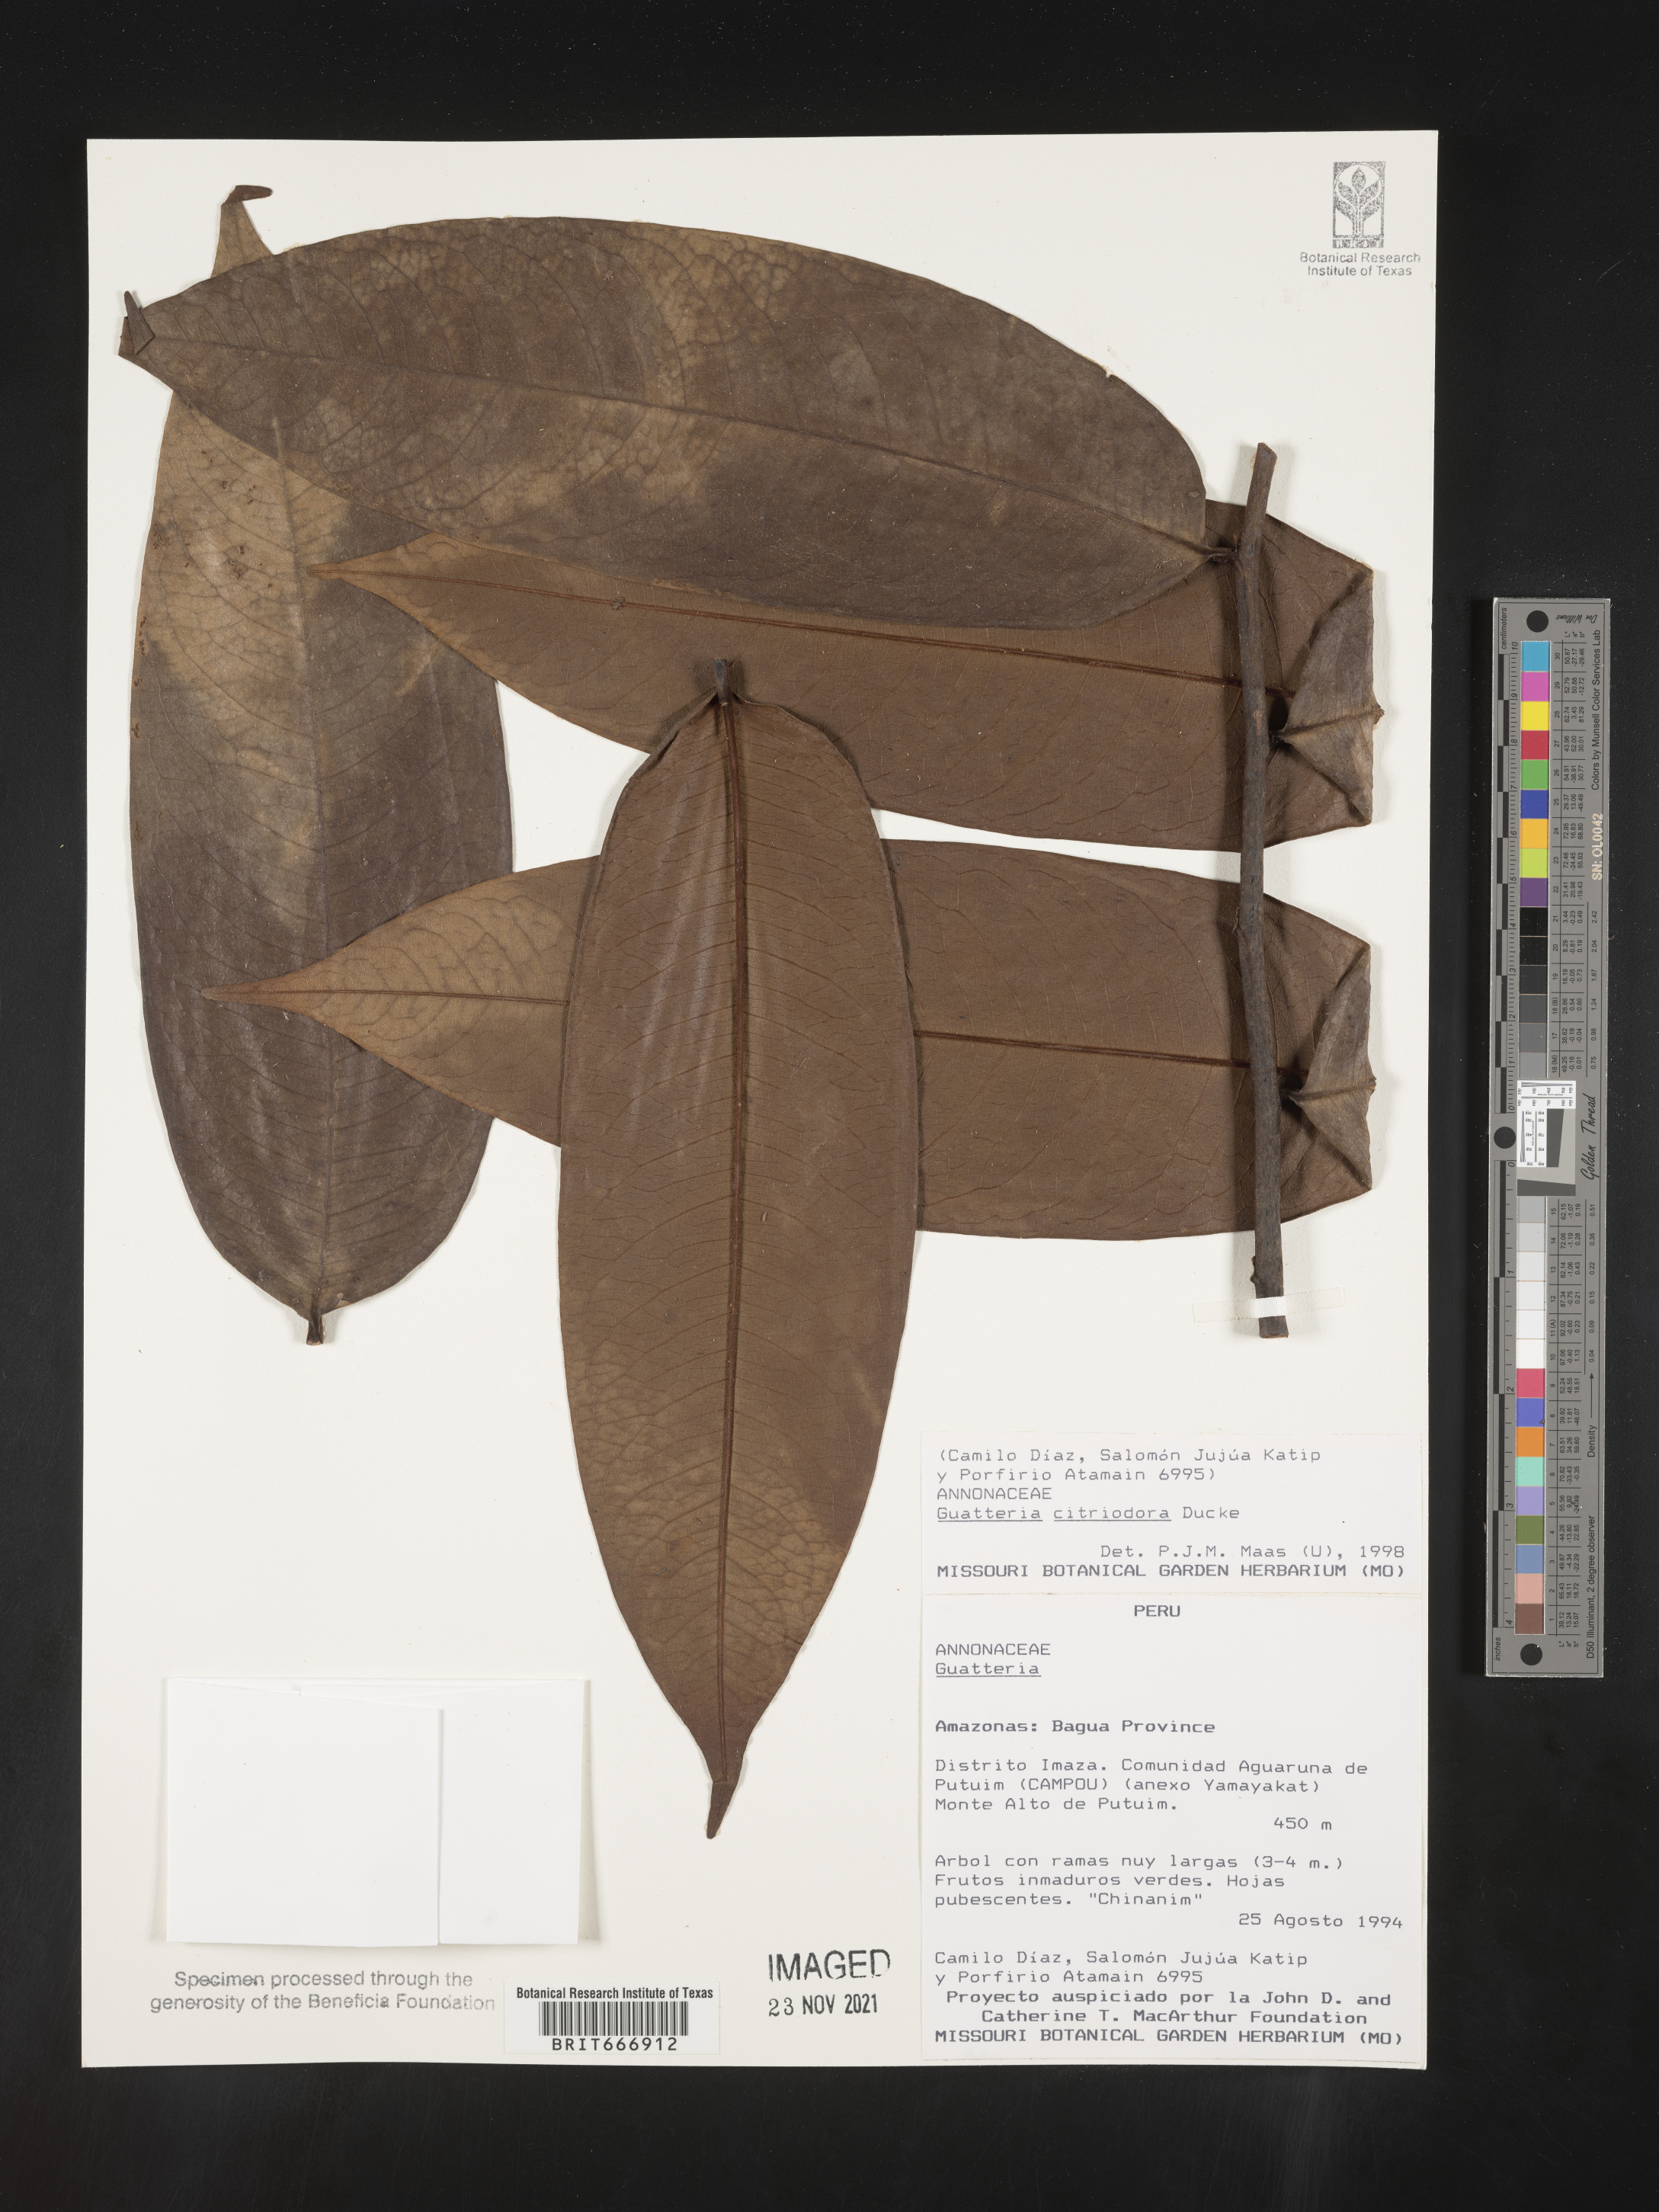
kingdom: Plantae
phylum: Tracheophyta
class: Magnoliopsida
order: Magnoliales
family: Annonaceae
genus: Guatteria
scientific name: Guatteria
